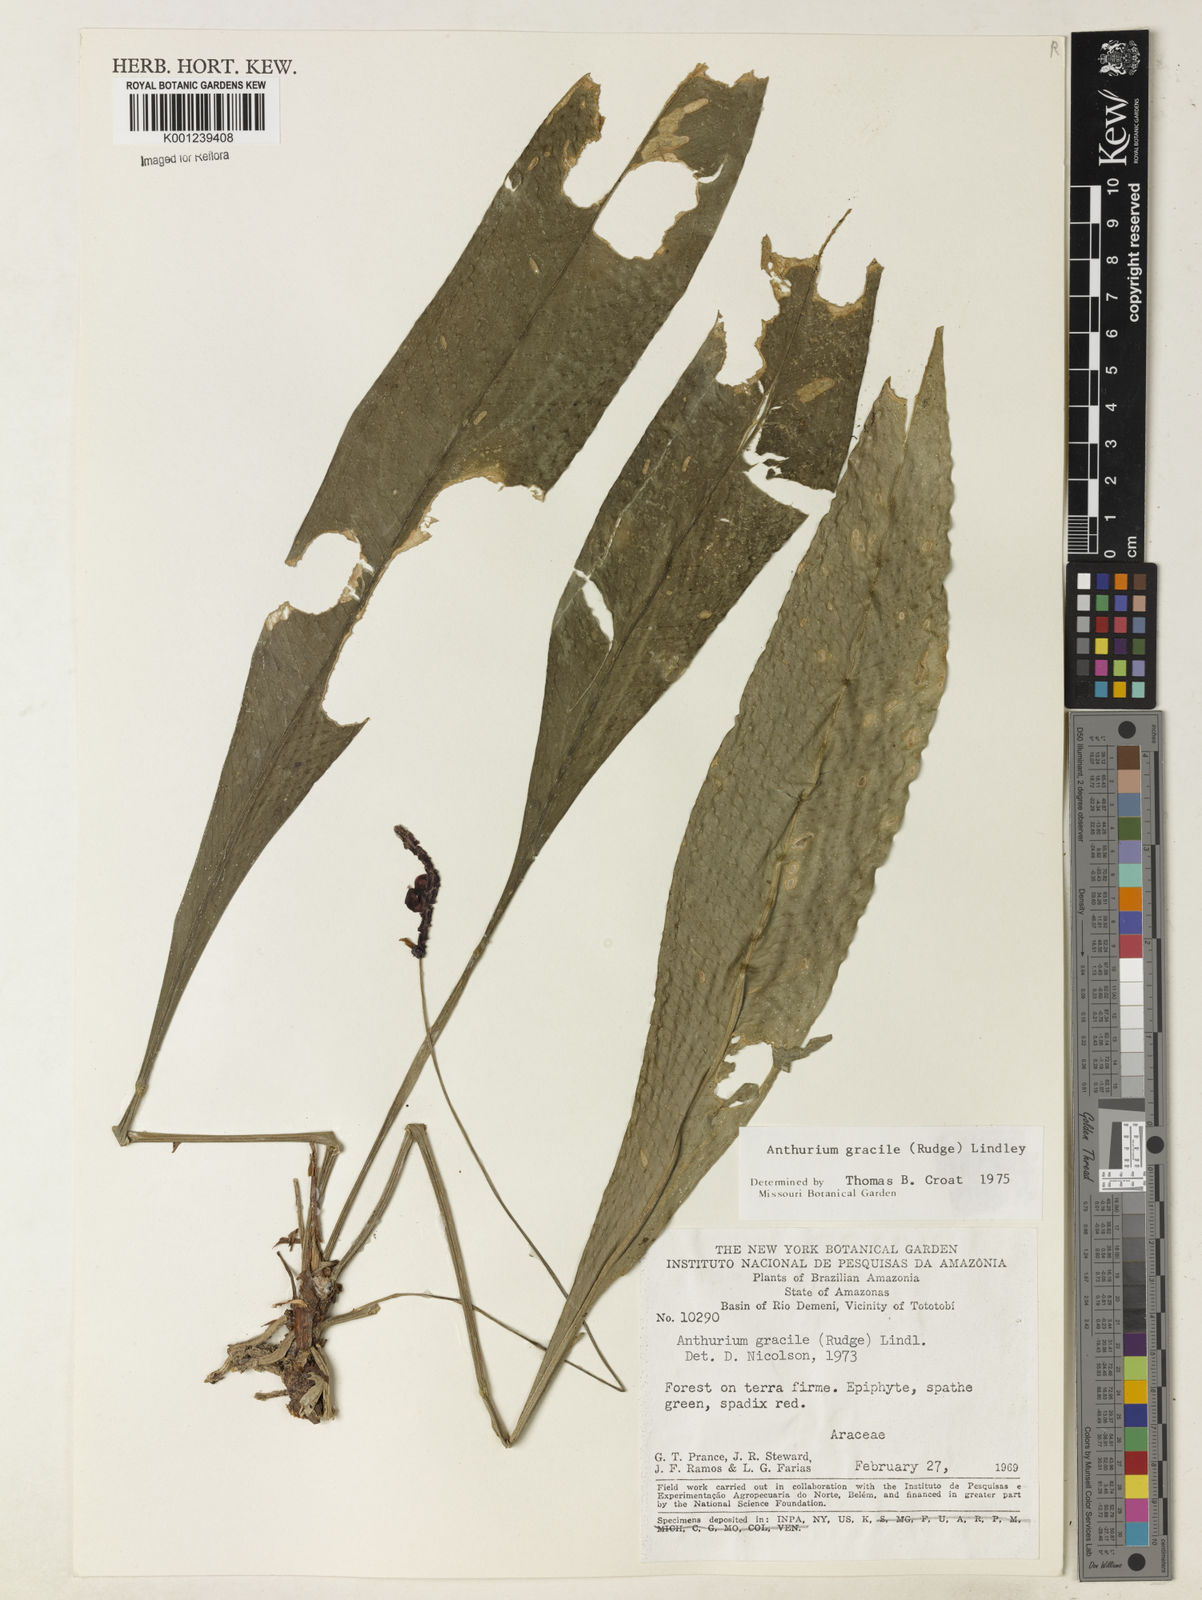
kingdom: Plantae
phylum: Tracheophyta
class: Liliopsida
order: Alismatales
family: Araceae
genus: Anthurium
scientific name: Anthurium gracile
